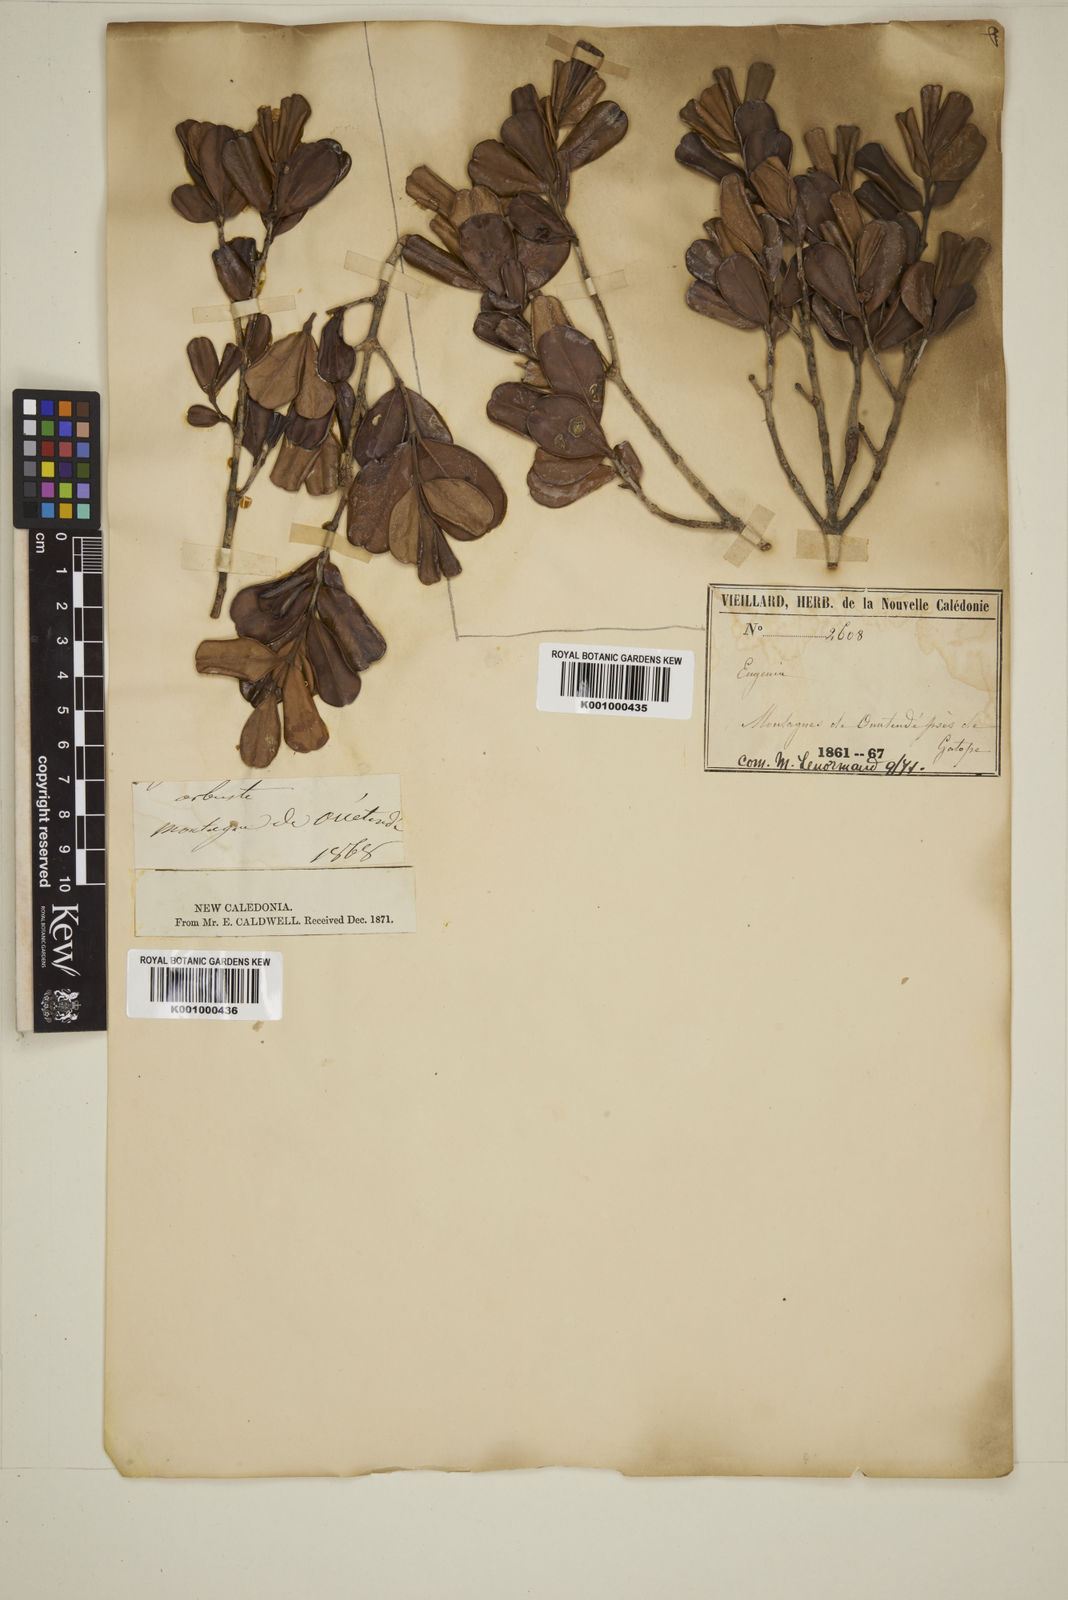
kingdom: Plantae
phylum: Tracheophyta
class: Magnoliopsida
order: Myrtales
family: Myrtaceae
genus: Eugenia
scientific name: Eugenia
